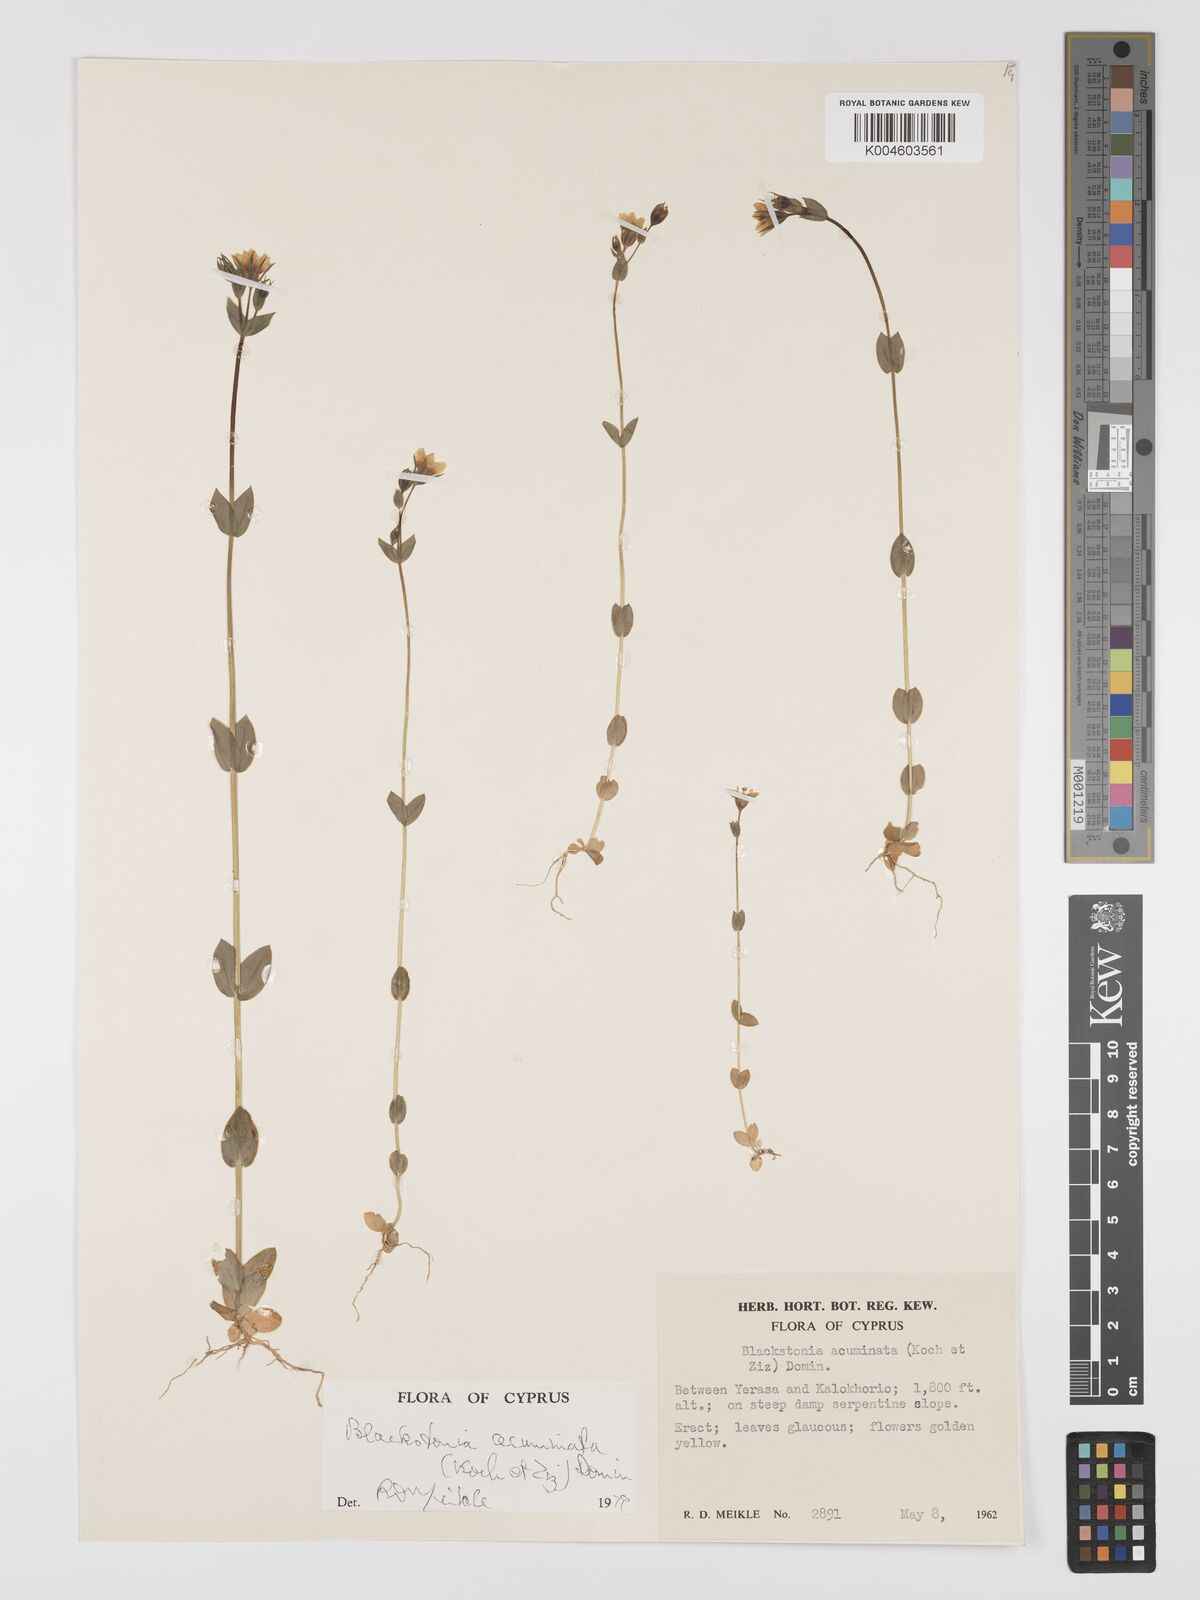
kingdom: Plantae
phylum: Tracheophyta
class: Magnoliopsida
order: Gentianales
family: Gentianaceae
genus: Blackstonia
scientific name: Blackstonia acuminata
